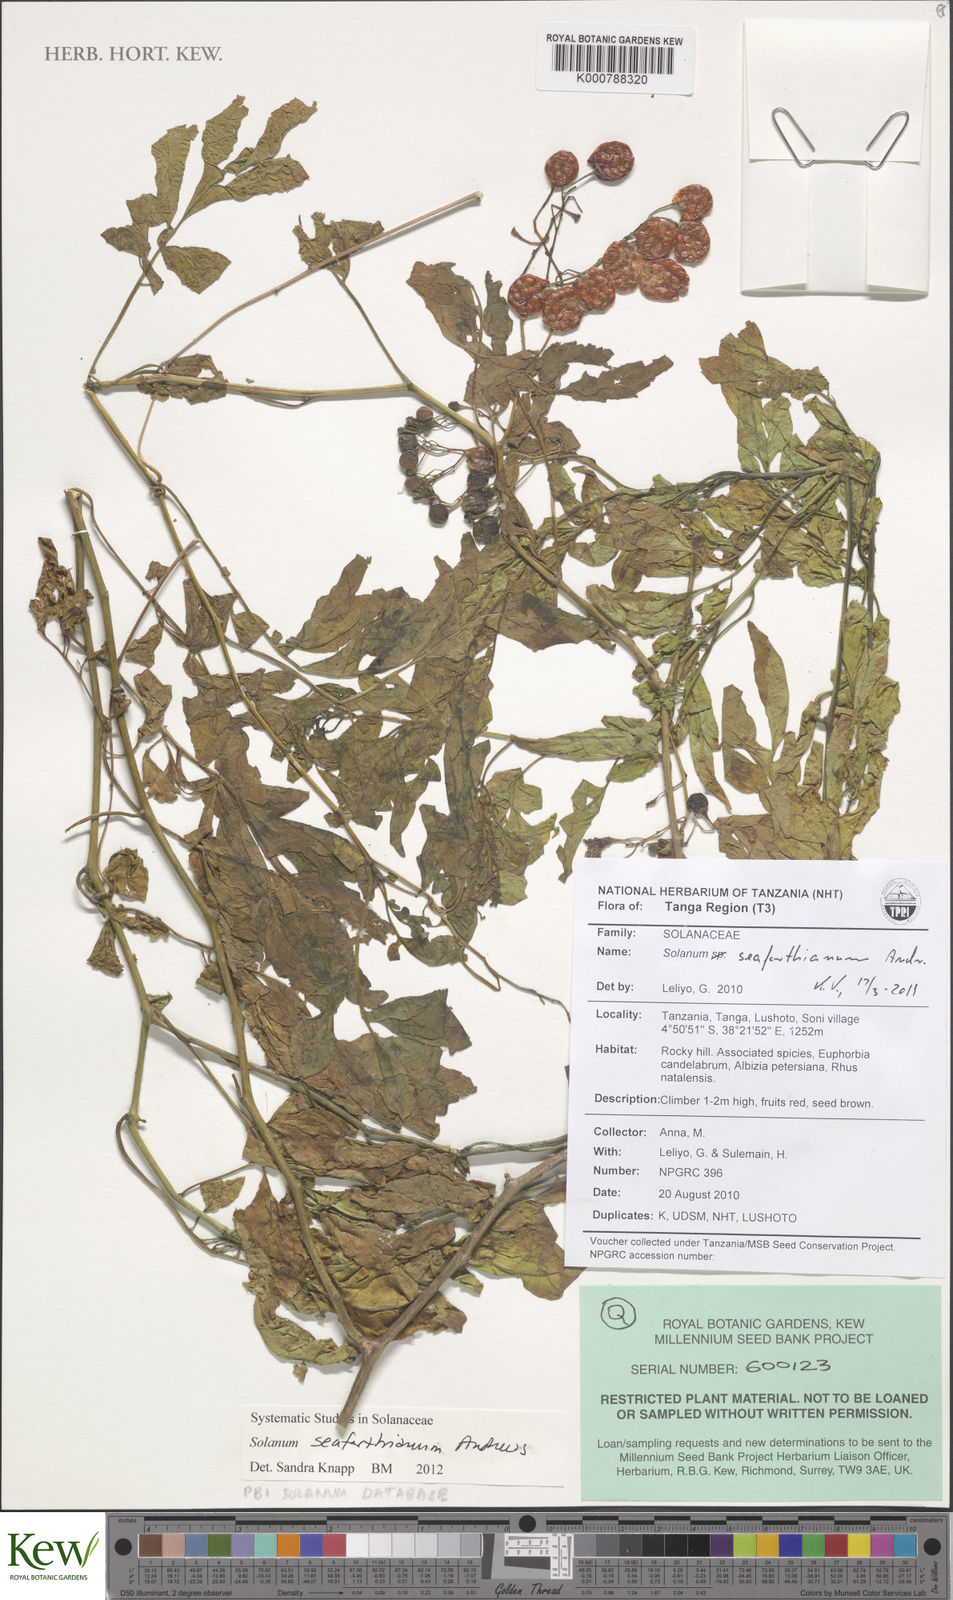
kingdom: Plantae
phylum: Tracheophyta
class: Magnoliopsida
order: Solanales
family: Solanaceae
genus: Solanum
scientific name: Solanum seaforthianum
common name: Brazilian nightshade
